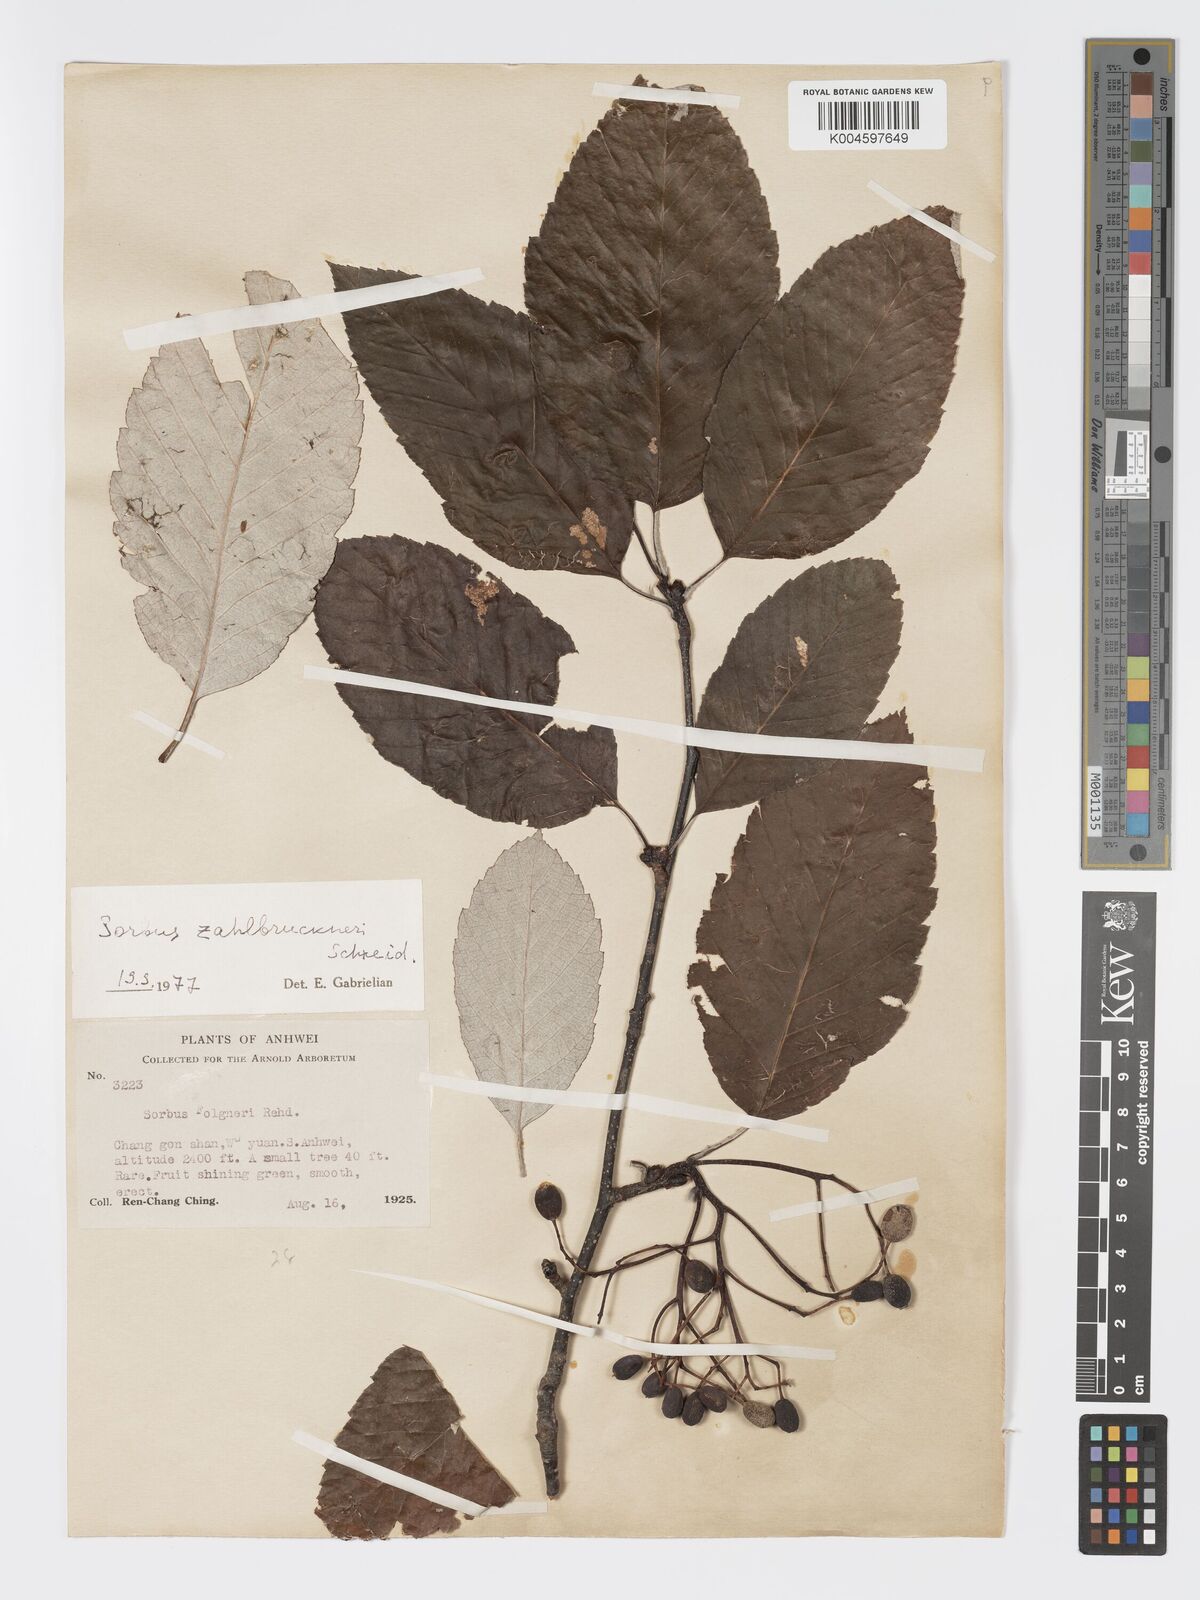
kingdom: Plantae
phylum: Tracheophyta
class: Magnoliopsida
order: Rosales
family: Rosaceae
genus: Sorbus
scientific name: Sorbus zahlbruckneri
